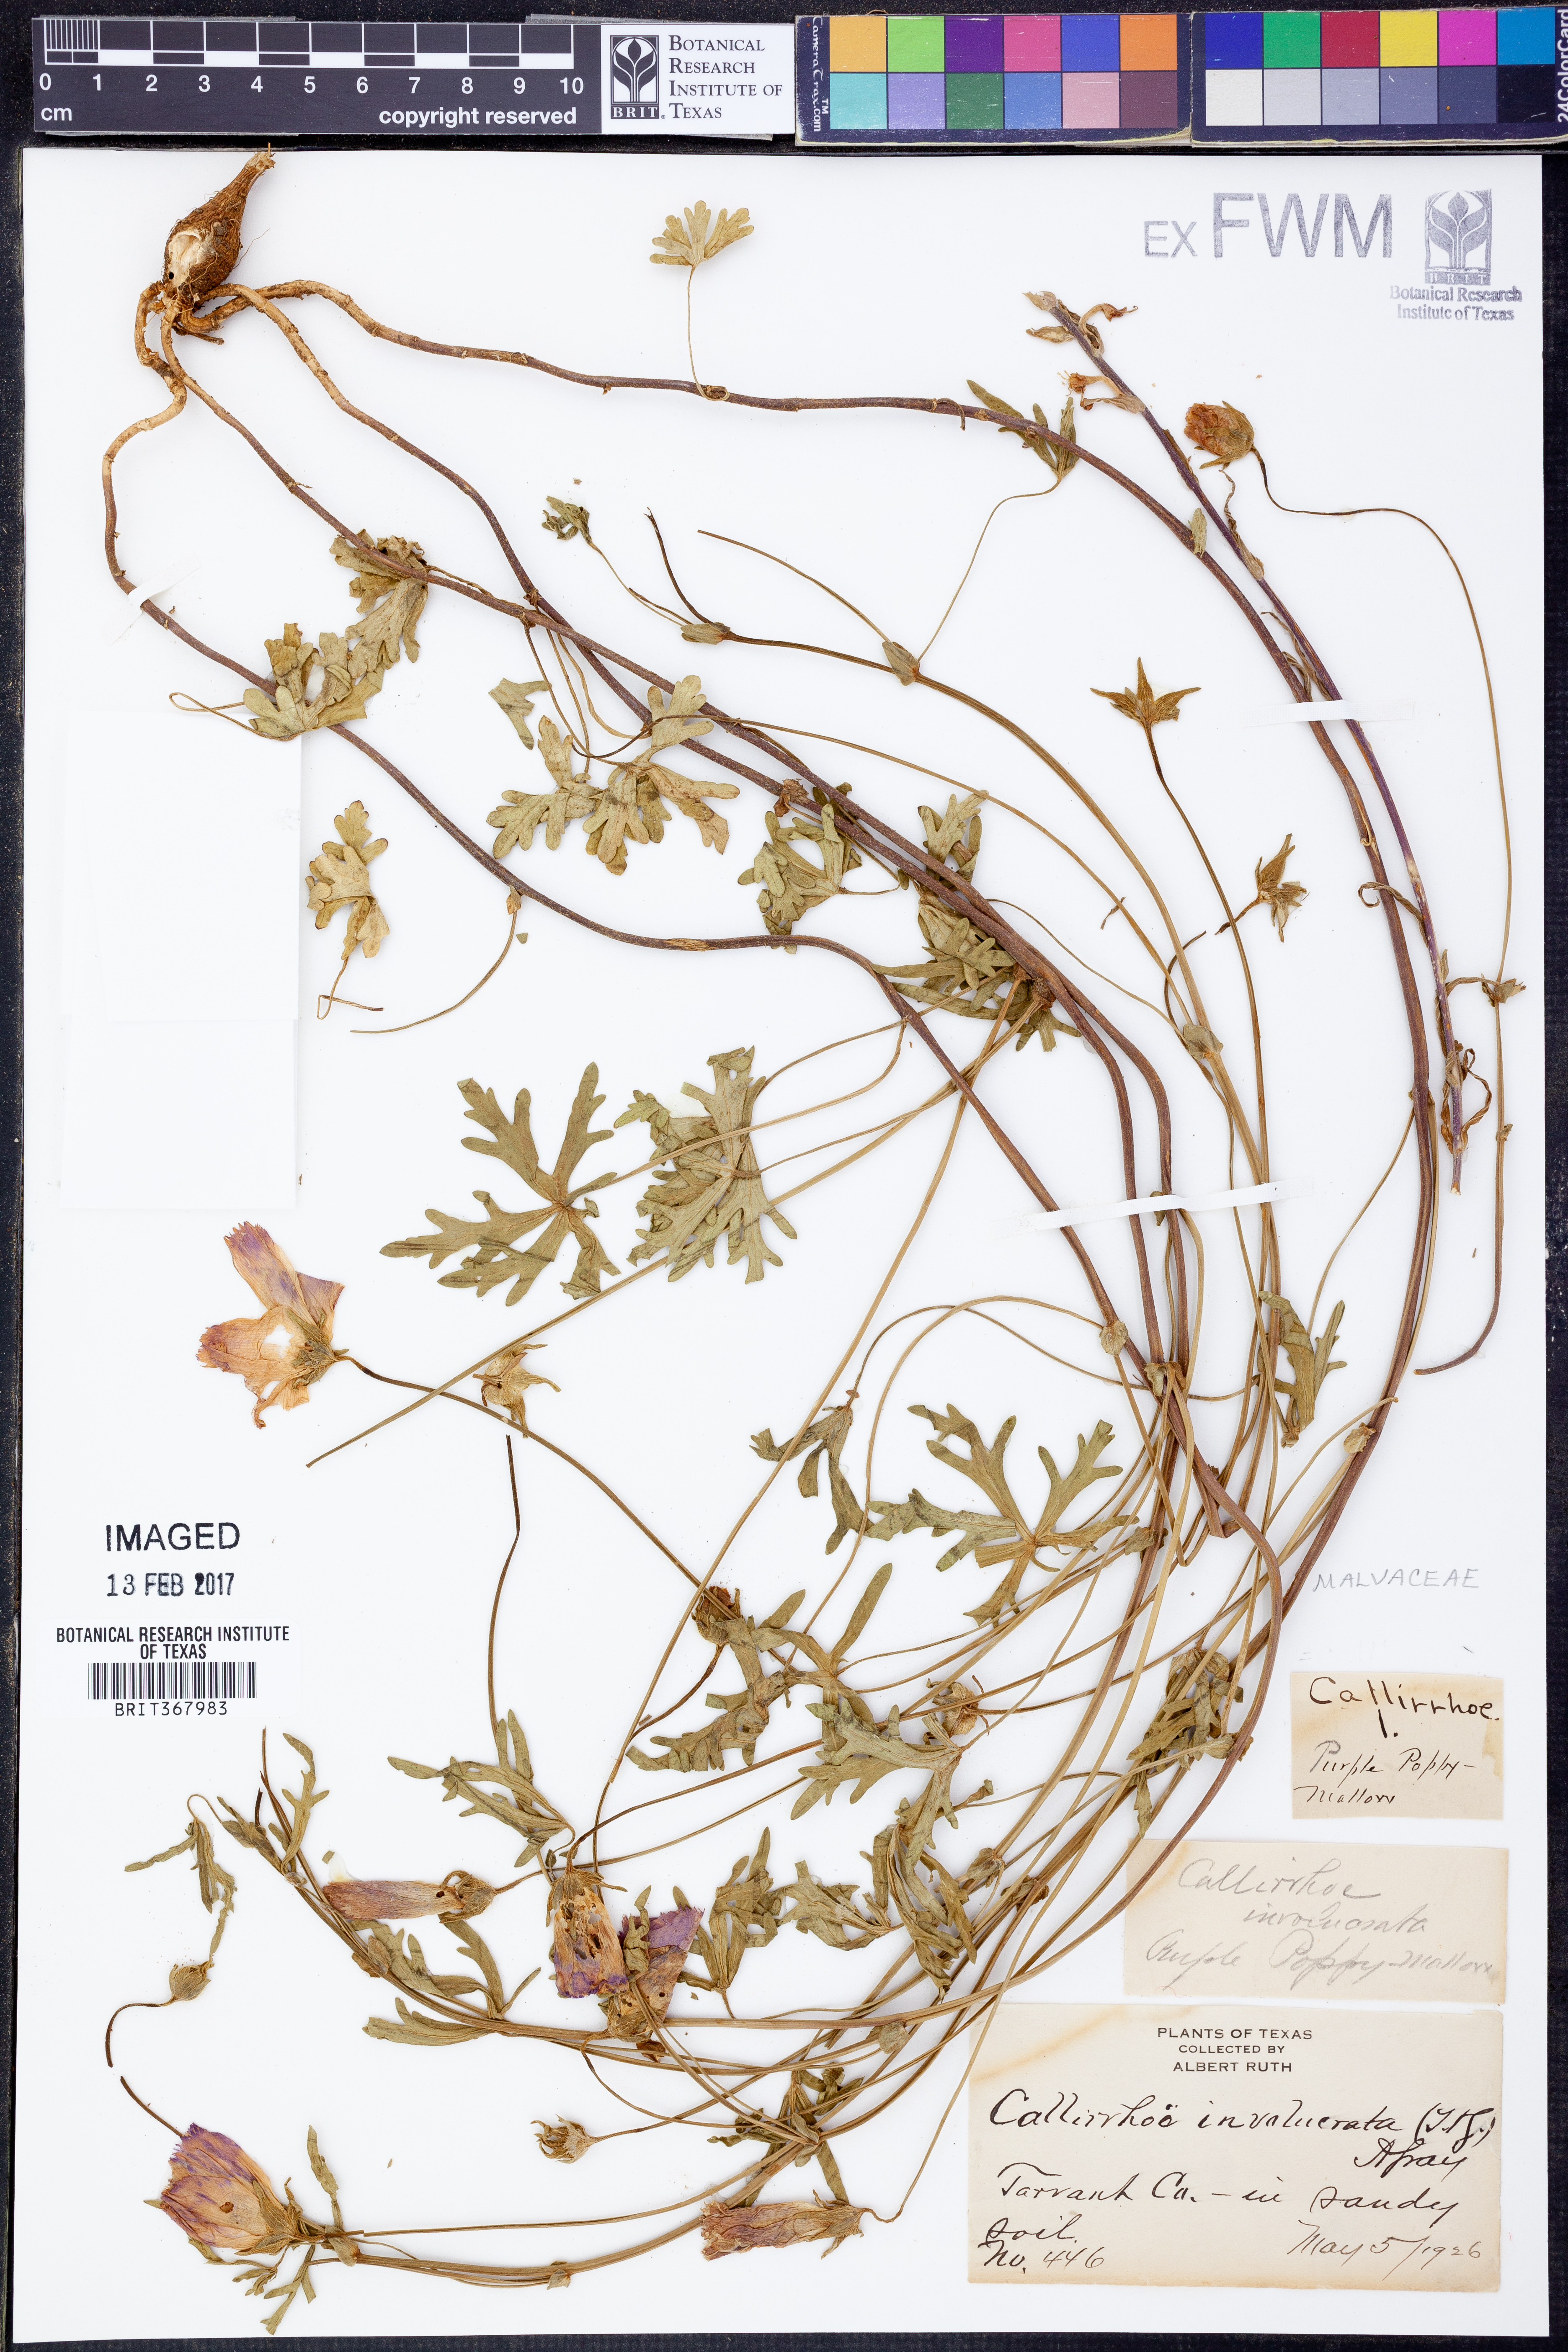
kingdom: Plantae
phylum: Tracheophyta
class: Magnoliopsida
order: Malvales
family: Malvaceae
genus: Callirhoe
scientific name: Callirhoe involucrata
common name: Purple poppy-mallow
